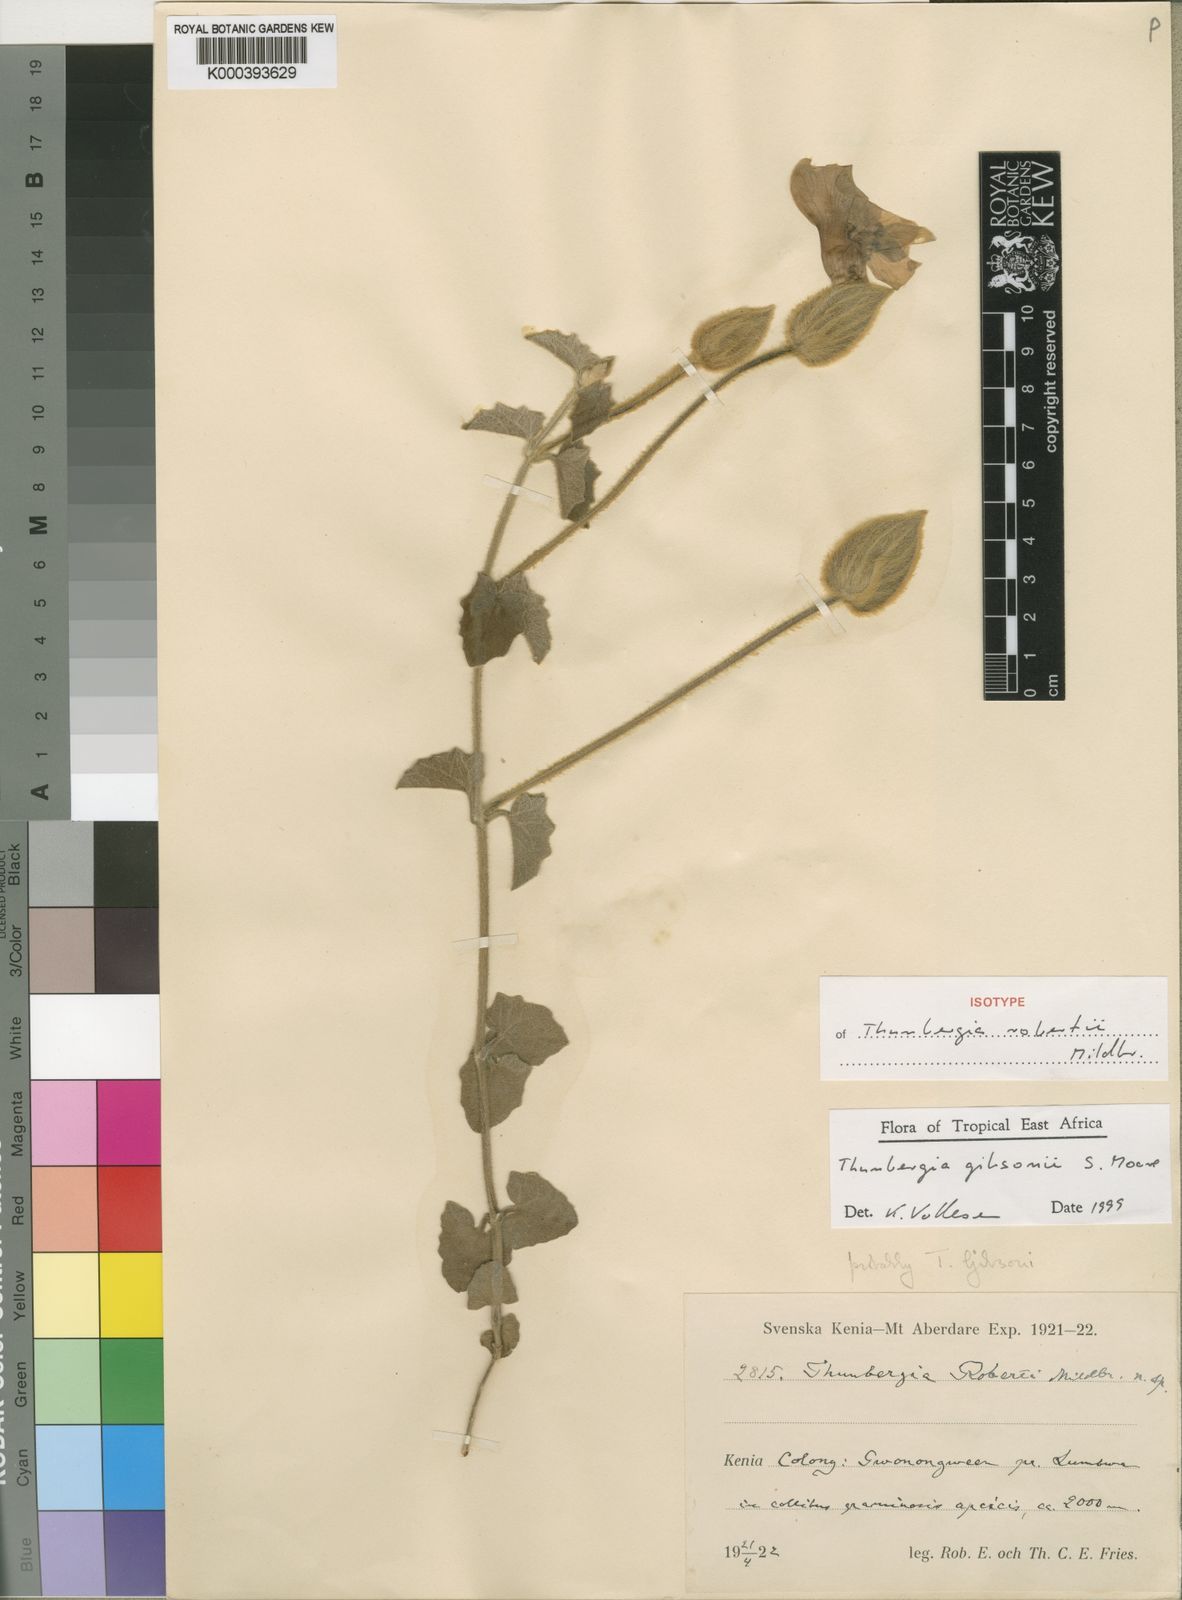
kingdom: Plantae
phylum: Tracheophyta
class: Magnoliopsida
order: Lamiales
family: Acanthaceae
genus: Thunbergia
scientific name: Thunbergia gibsonii
